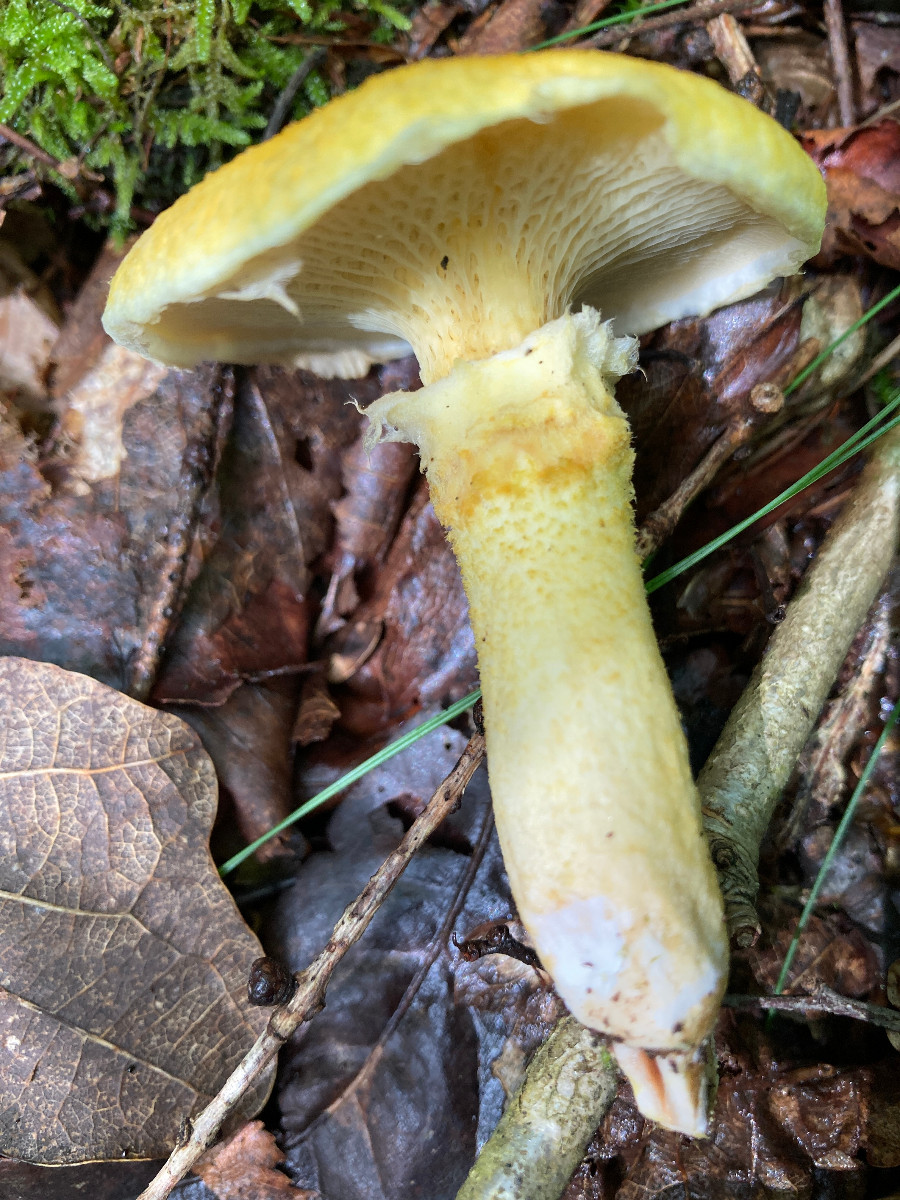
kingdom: Fungi
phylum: Basidiomycota
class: Agaricomycetes
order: Boletales
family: Suillaceae
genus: Suillus
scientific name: Suillus cavipes
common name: hulstokket slimrørhat, gul form
